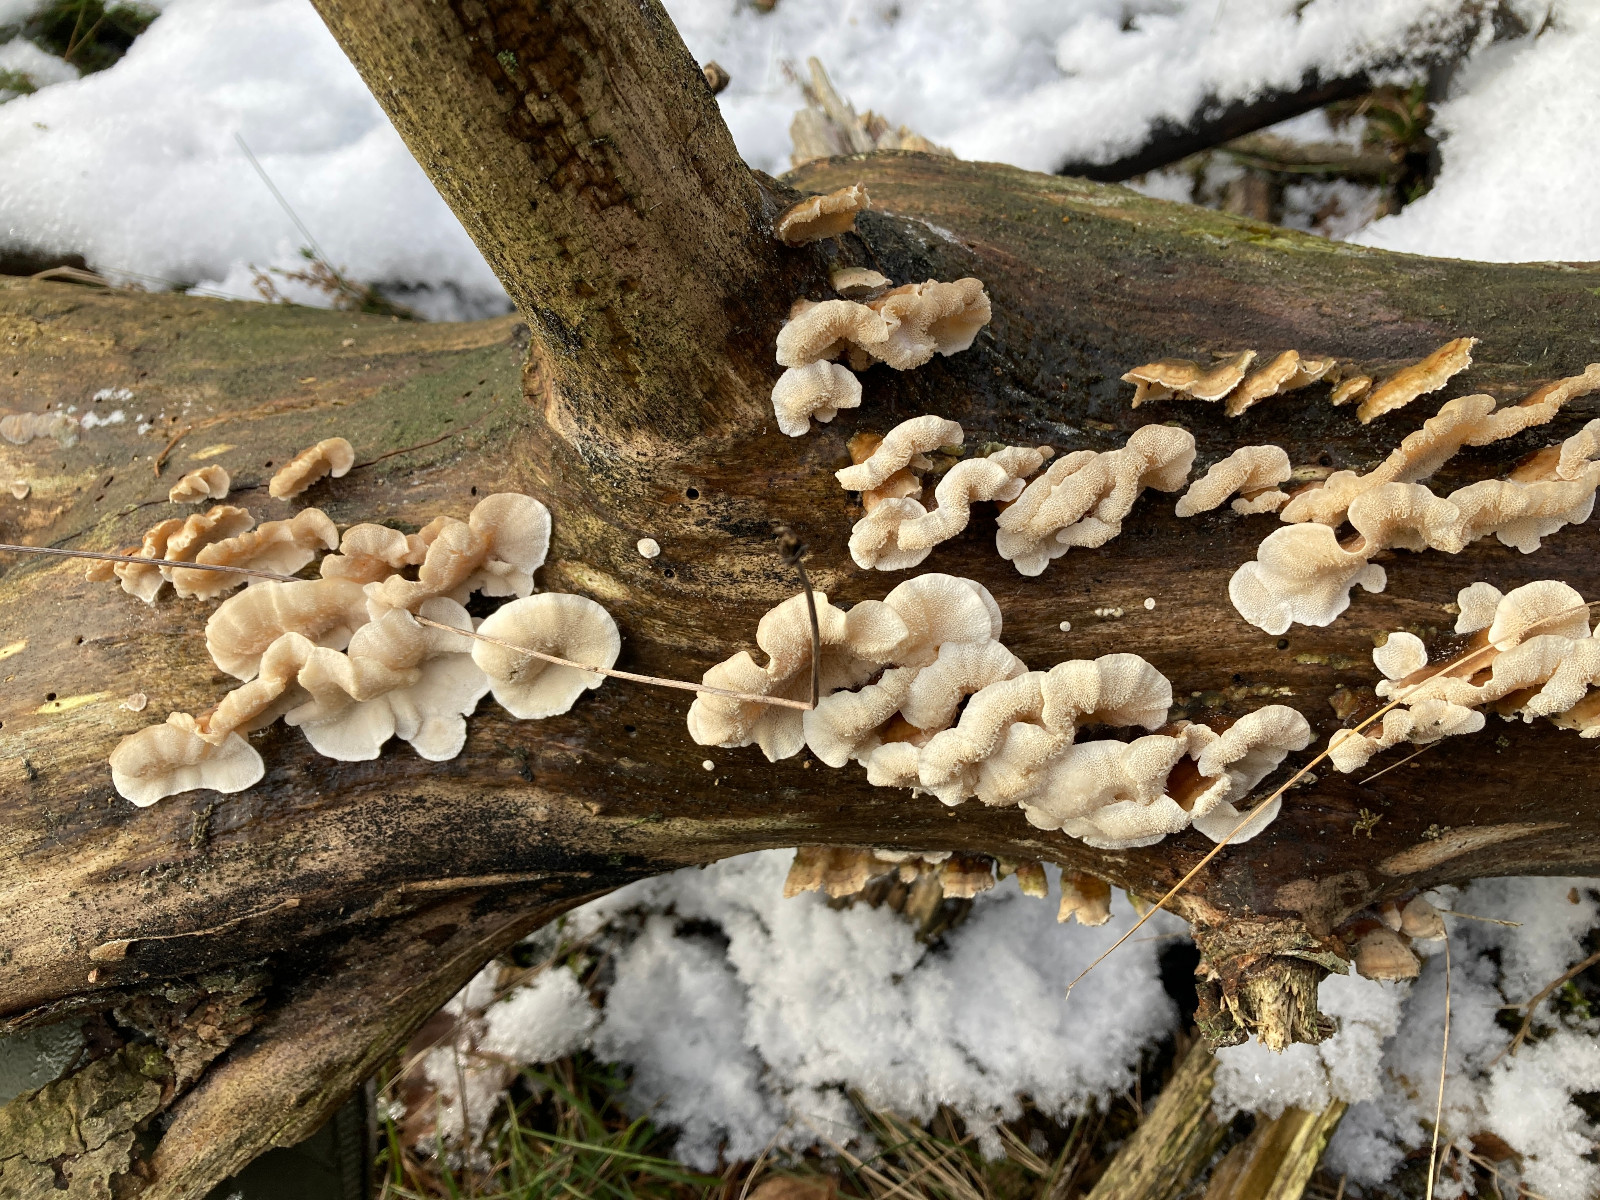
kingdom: Fungi
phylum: Basidiomycota
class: Agaricomycetes
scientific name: Agaricomycetes
